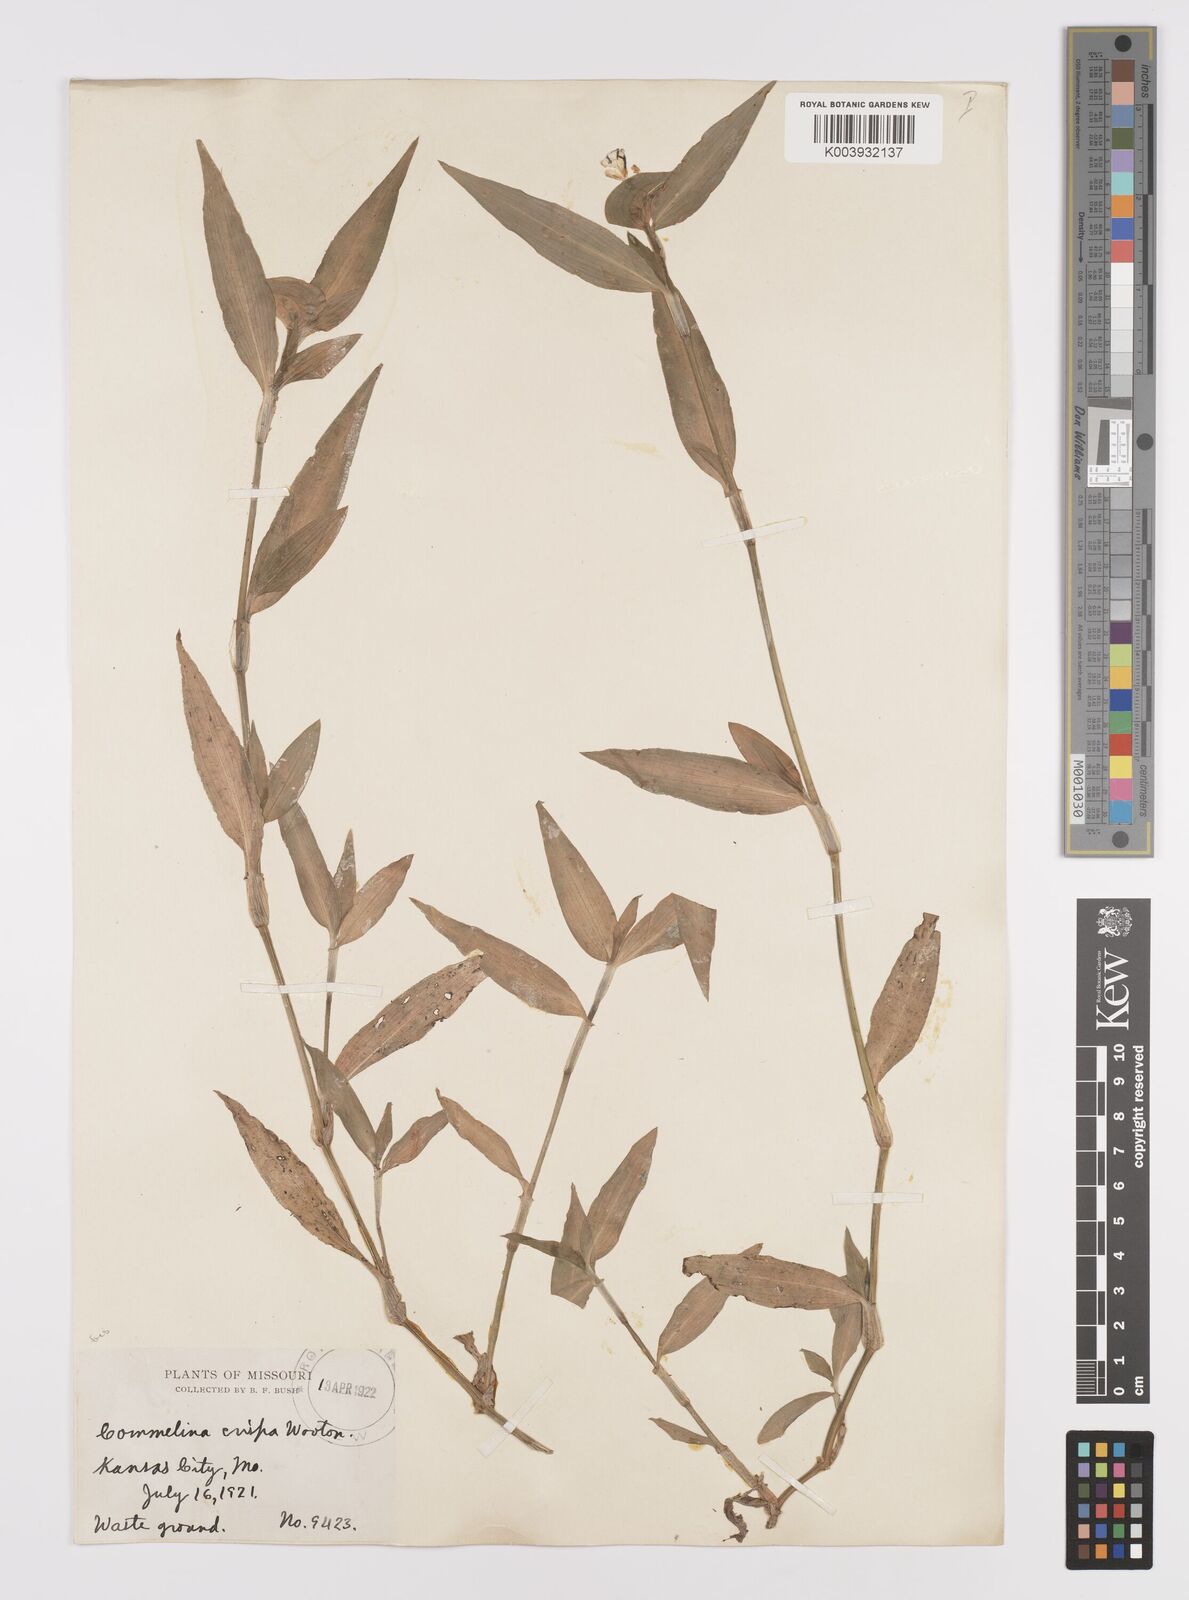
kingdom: Plantae
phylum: Tracheophyta
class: Liliopsida
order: Commelinales
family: Commelinaceae
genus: Commelina
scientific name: Commelina erecta
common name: Blousel blommetjie
